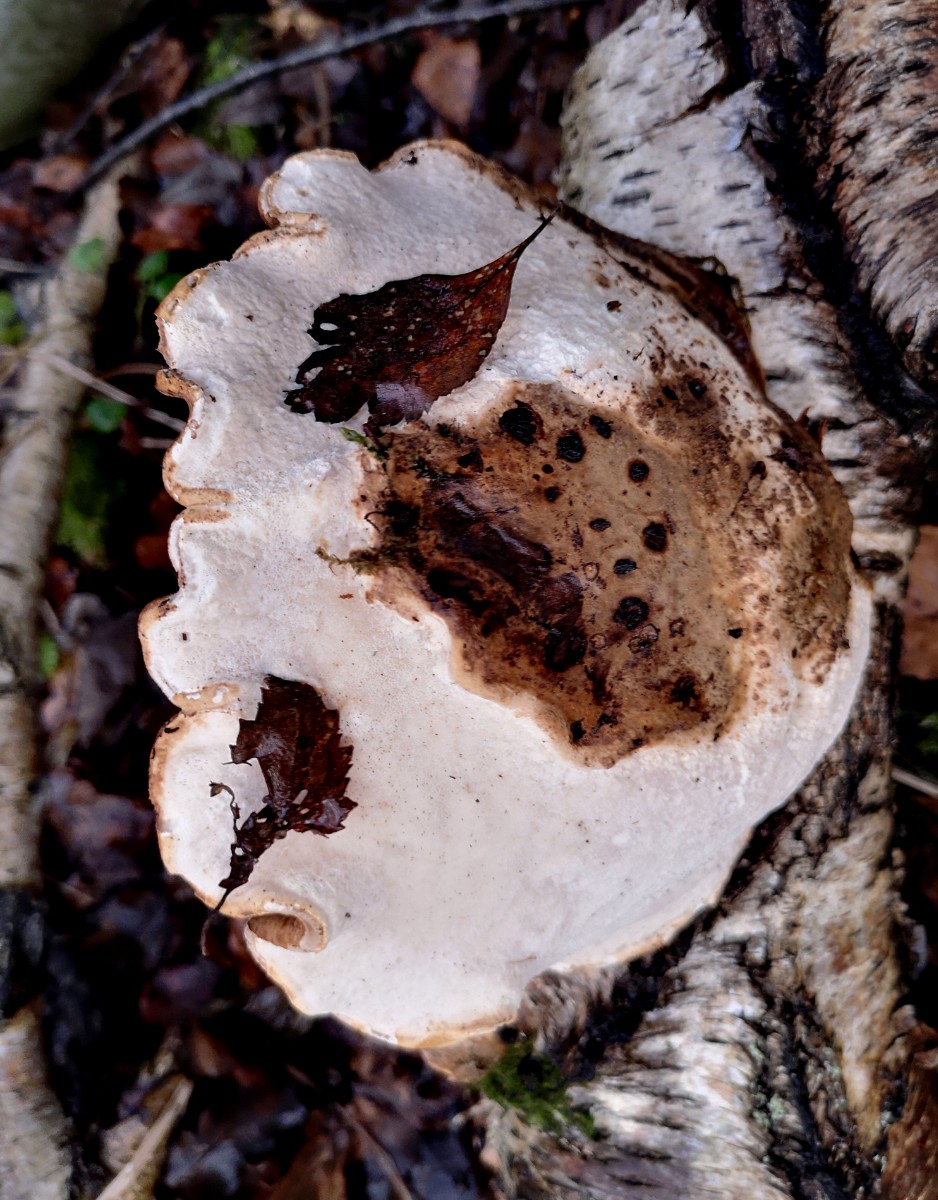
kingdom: Fungi
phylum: Basidiomycota
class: Agaricomycetes
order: Polyporales
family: Fomitopsidaceae
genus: Fomitopsis
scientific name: Fomitopsis betulina
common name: birkeporesvamp
